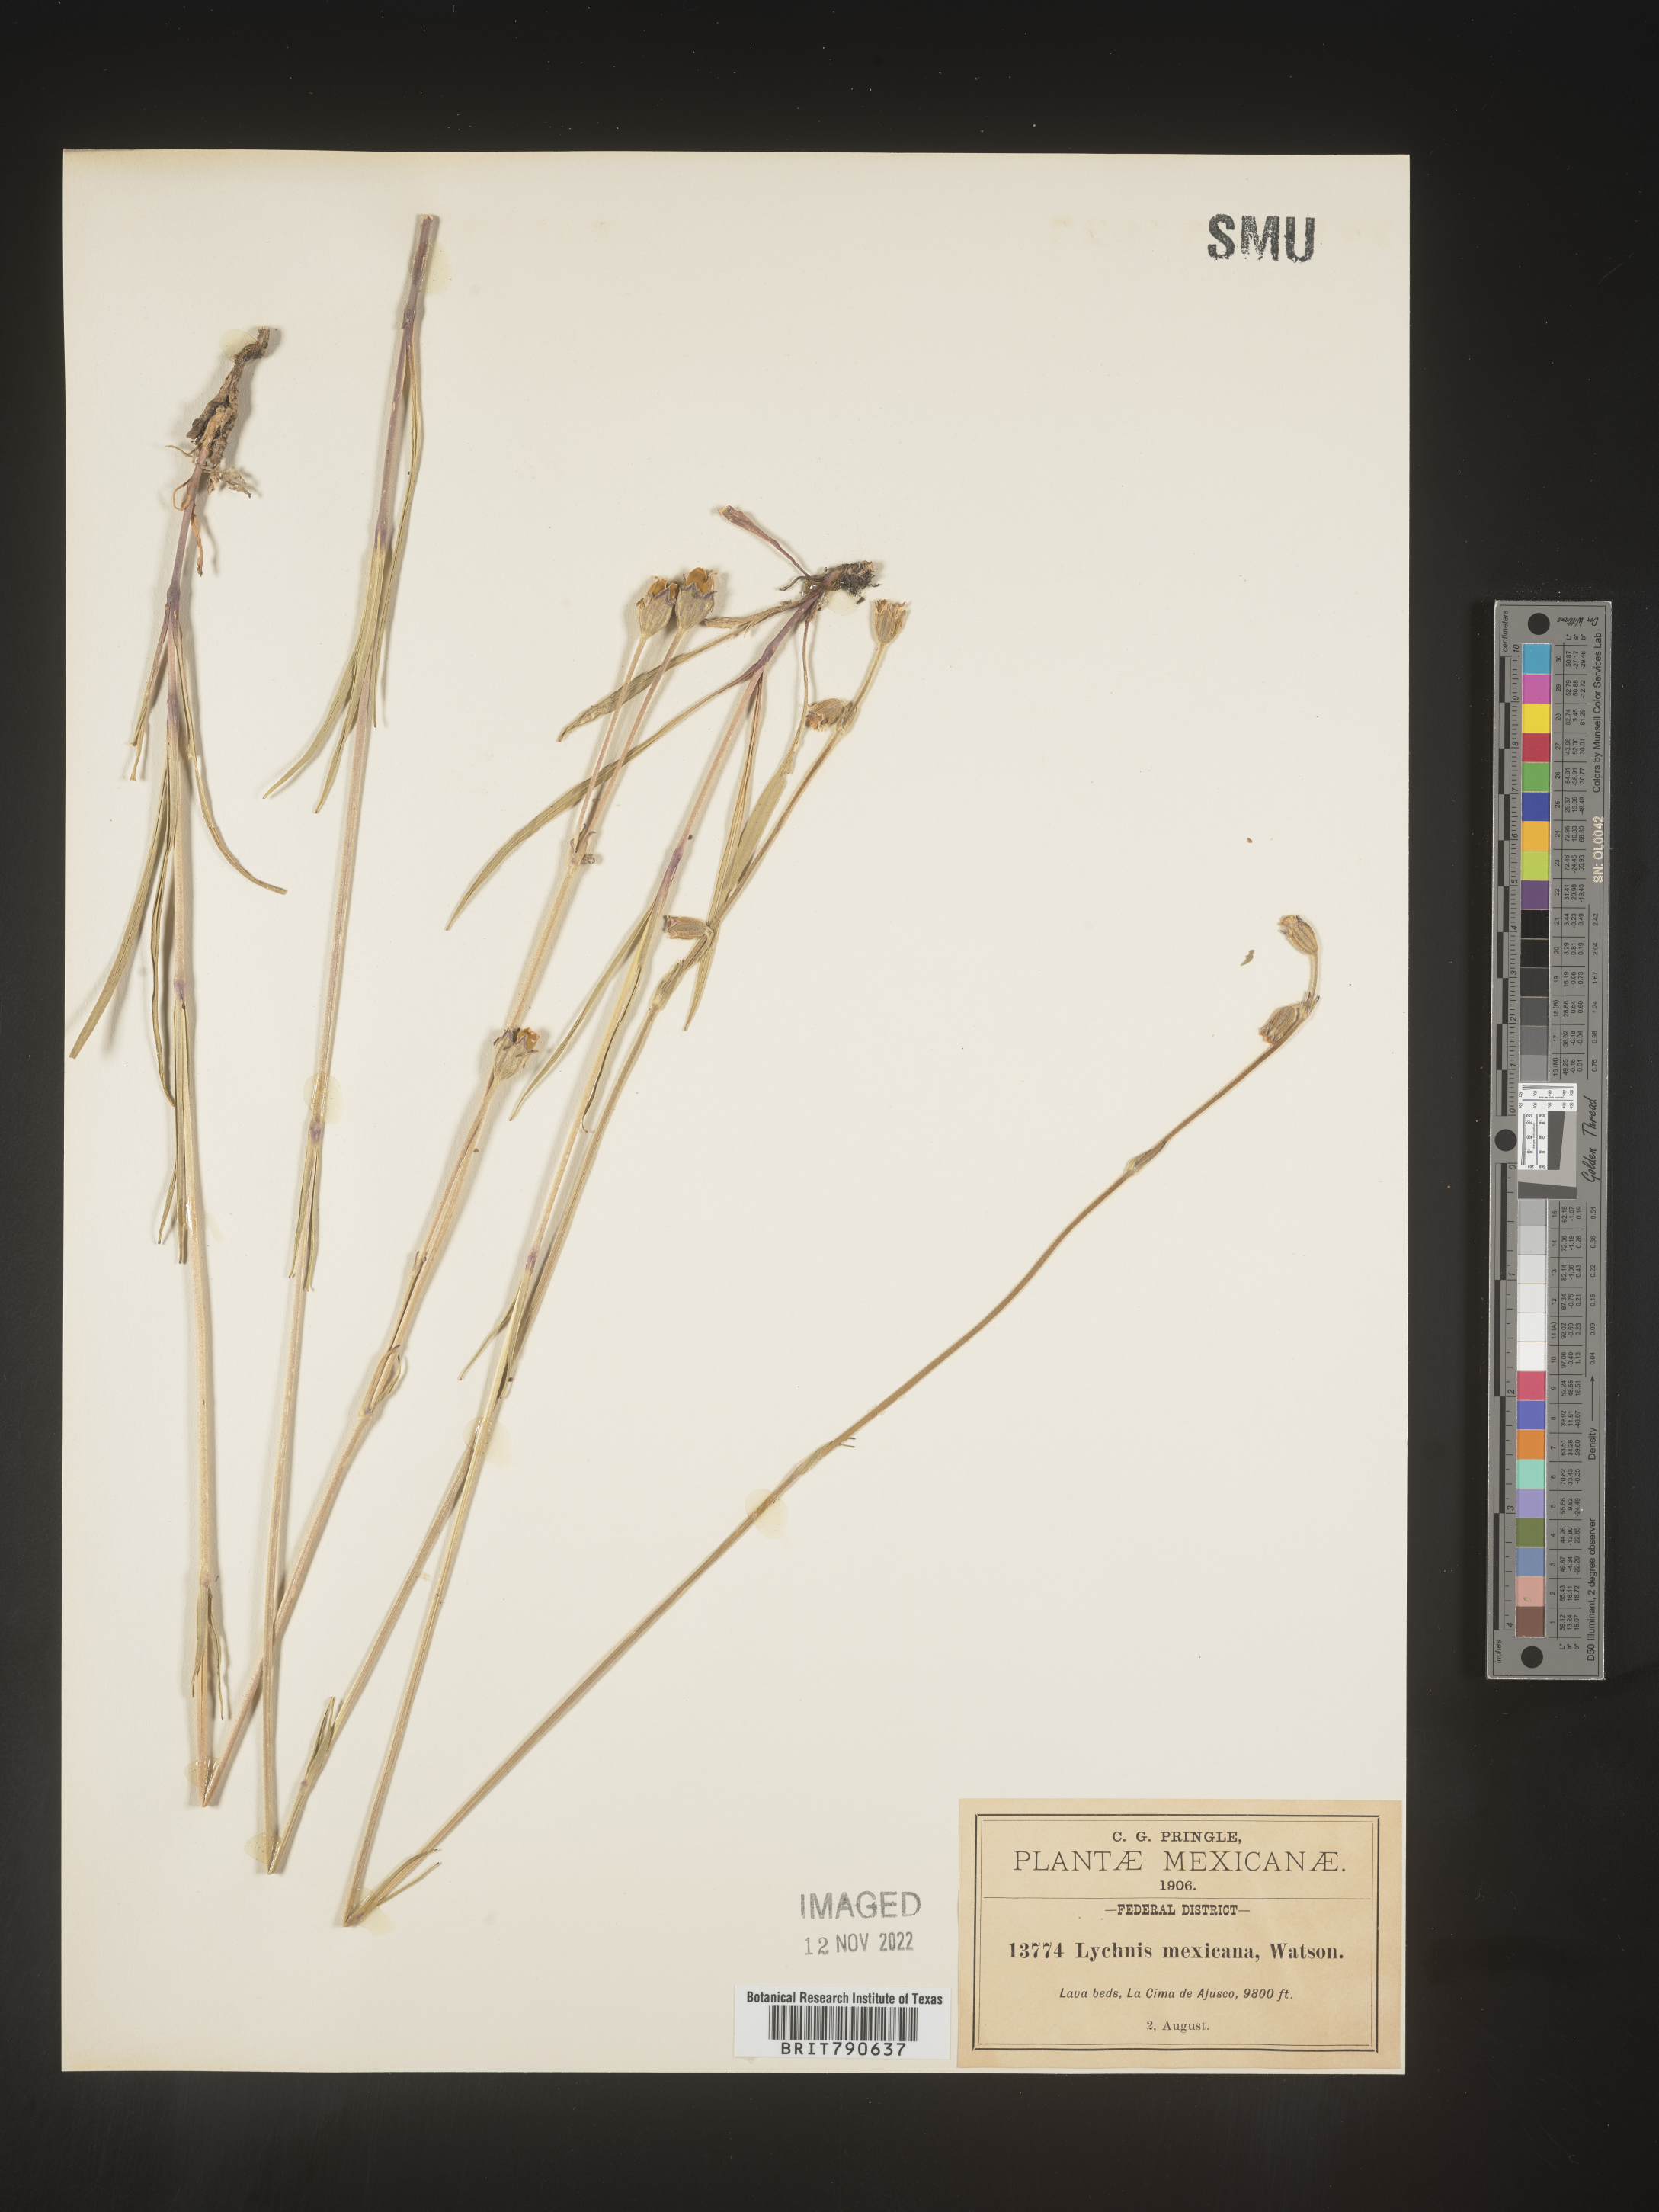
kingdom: Plantae
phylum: Tracheophyta
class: Magnoliopsida
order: Caryophyllales
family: Caryophyllaceae
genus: Silene
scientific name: Silene
